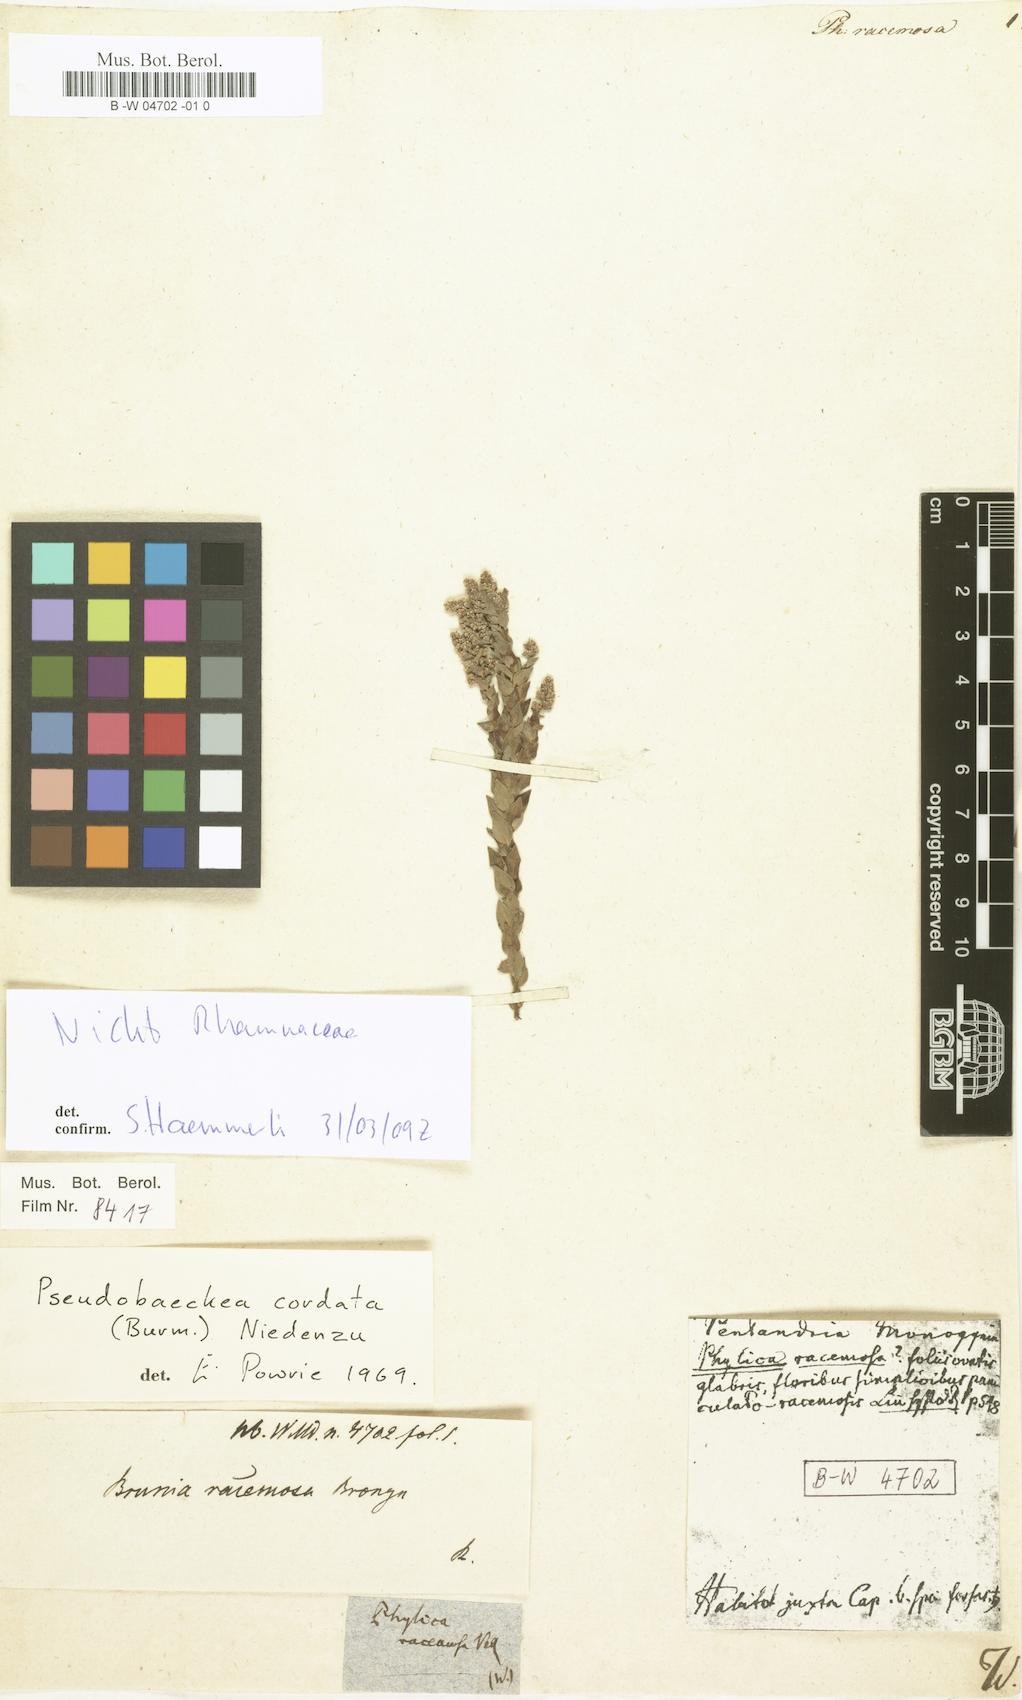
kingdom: Plantae
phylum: Tracheophyta
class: Magnoliopsida
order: Bruniales
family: Bruniaceae
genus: Brunia
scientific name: Brunia cordata
